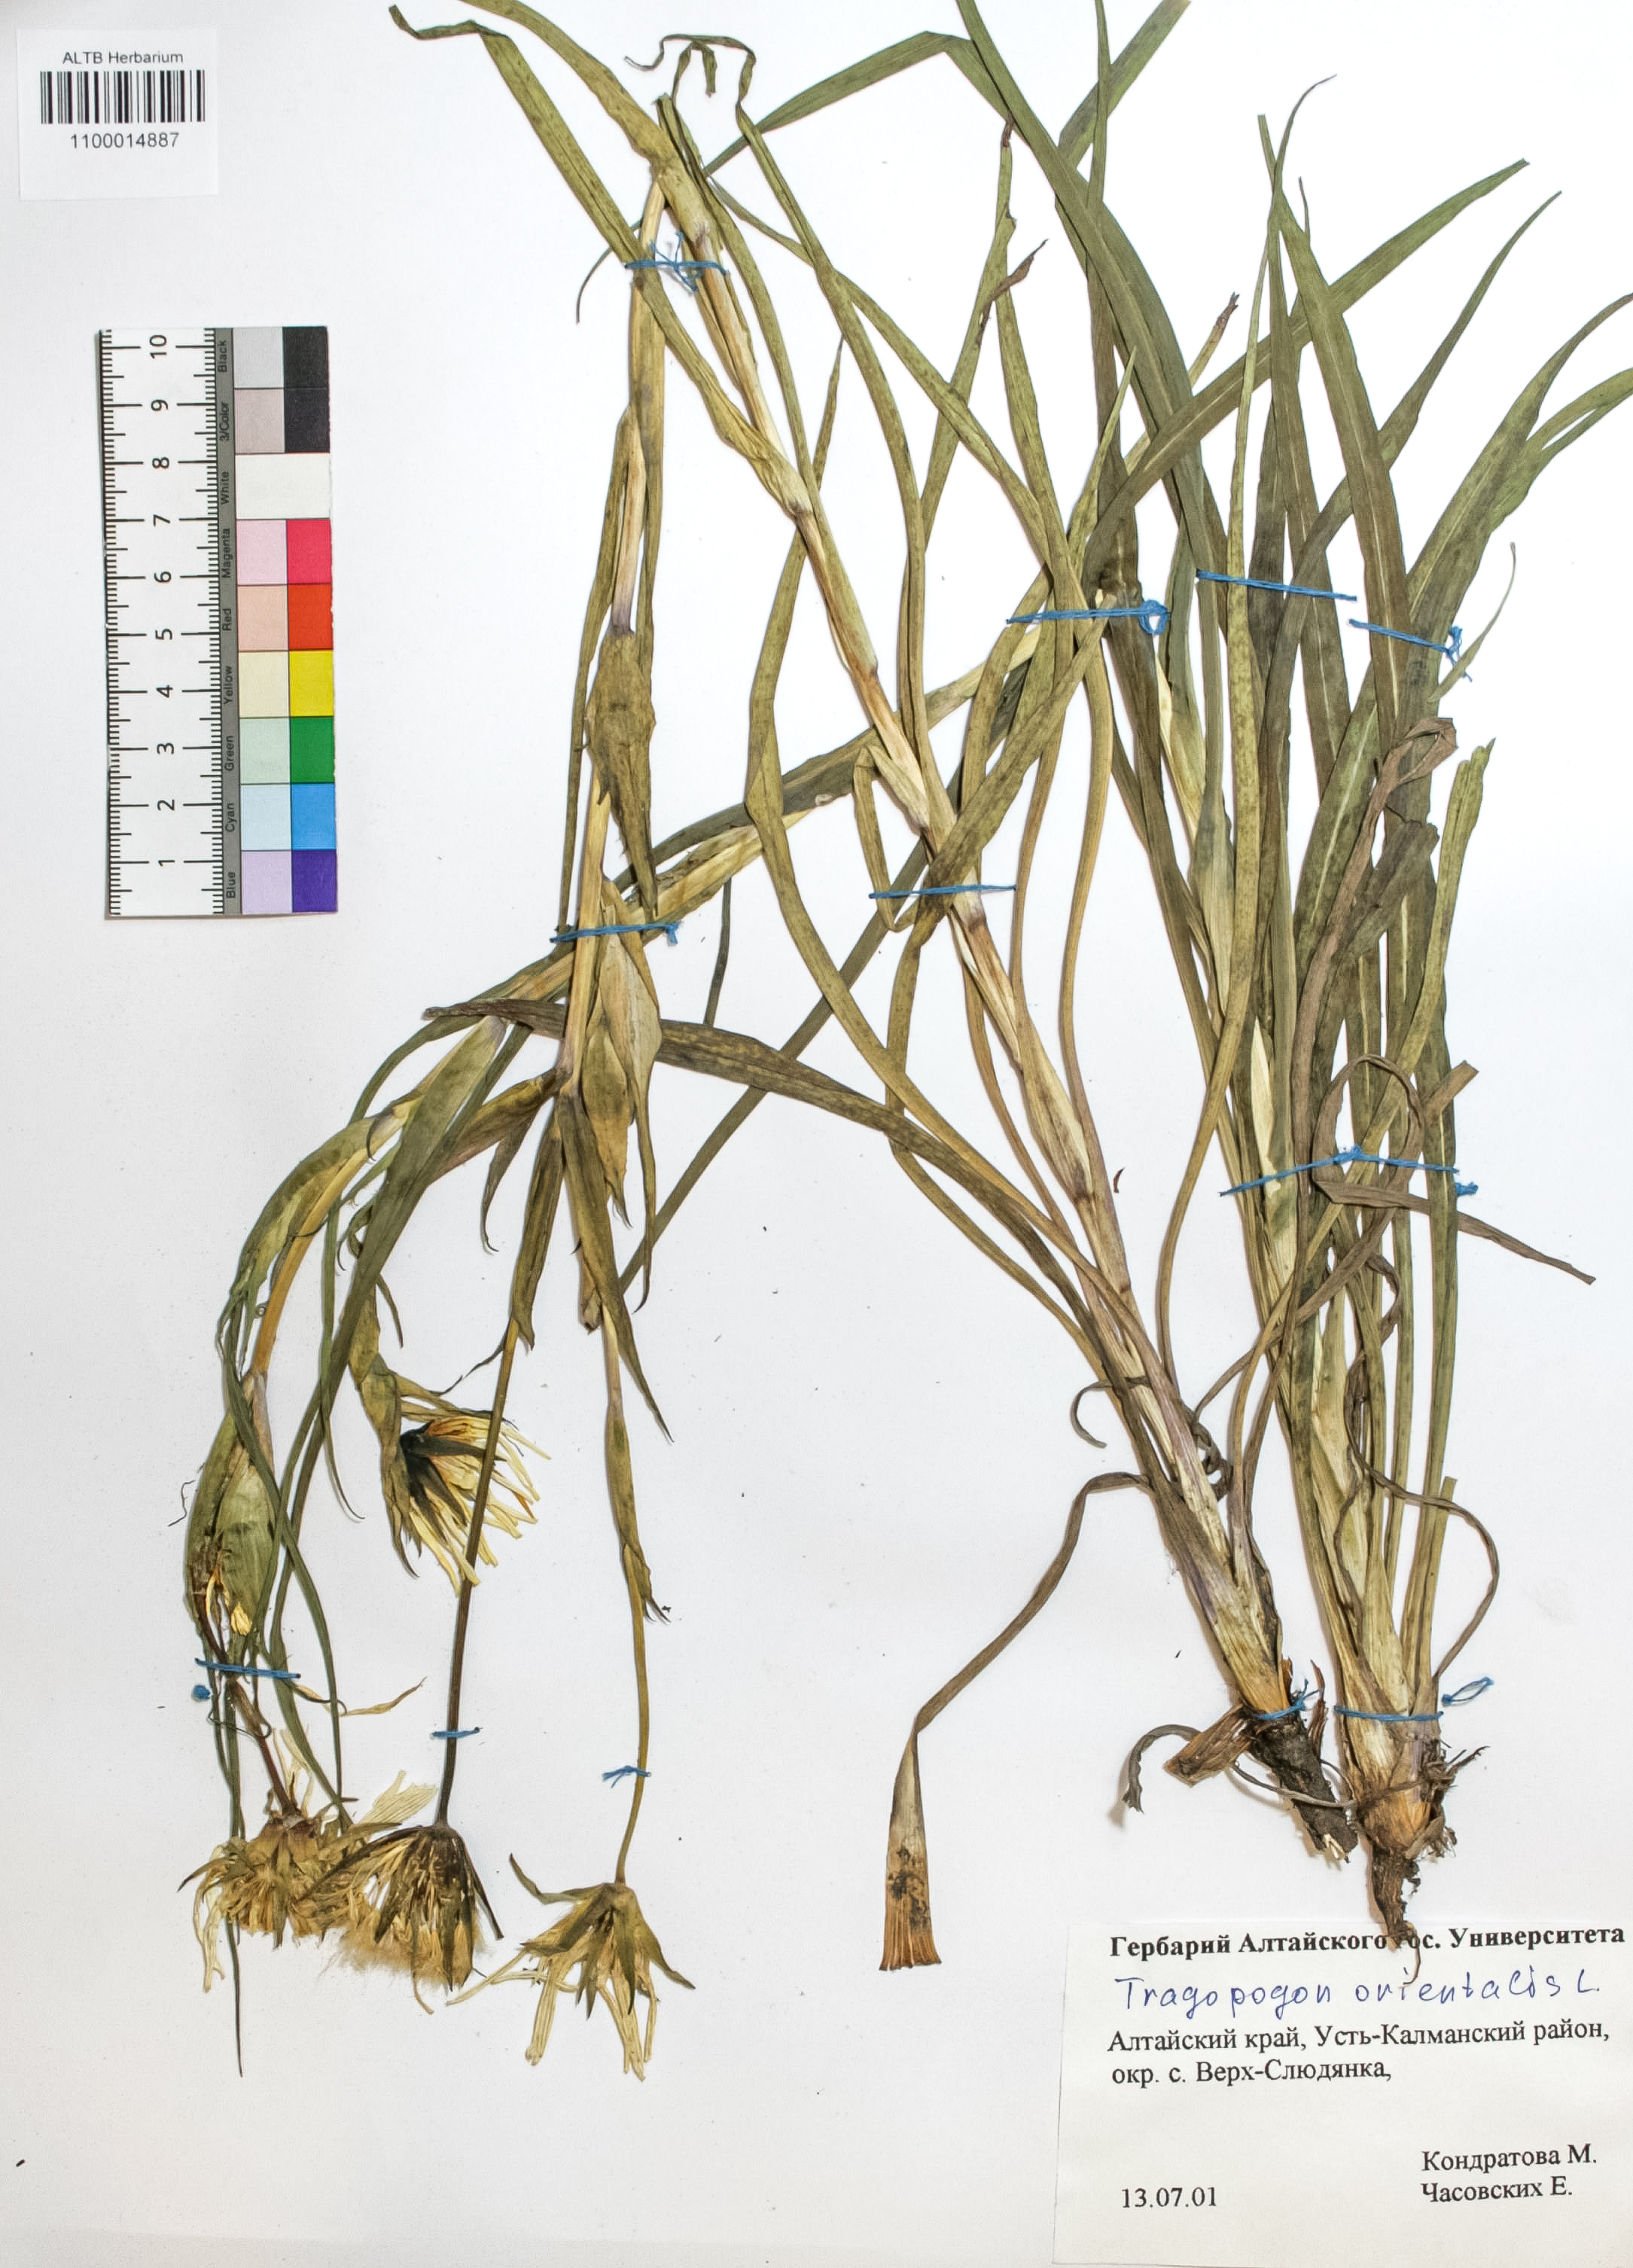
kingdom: Plantae
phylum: Tracheophyta
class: Magnoliopsida
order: Asterales
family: Asteraceae
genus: Tragopogon
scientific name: Tragopogon orientalis
